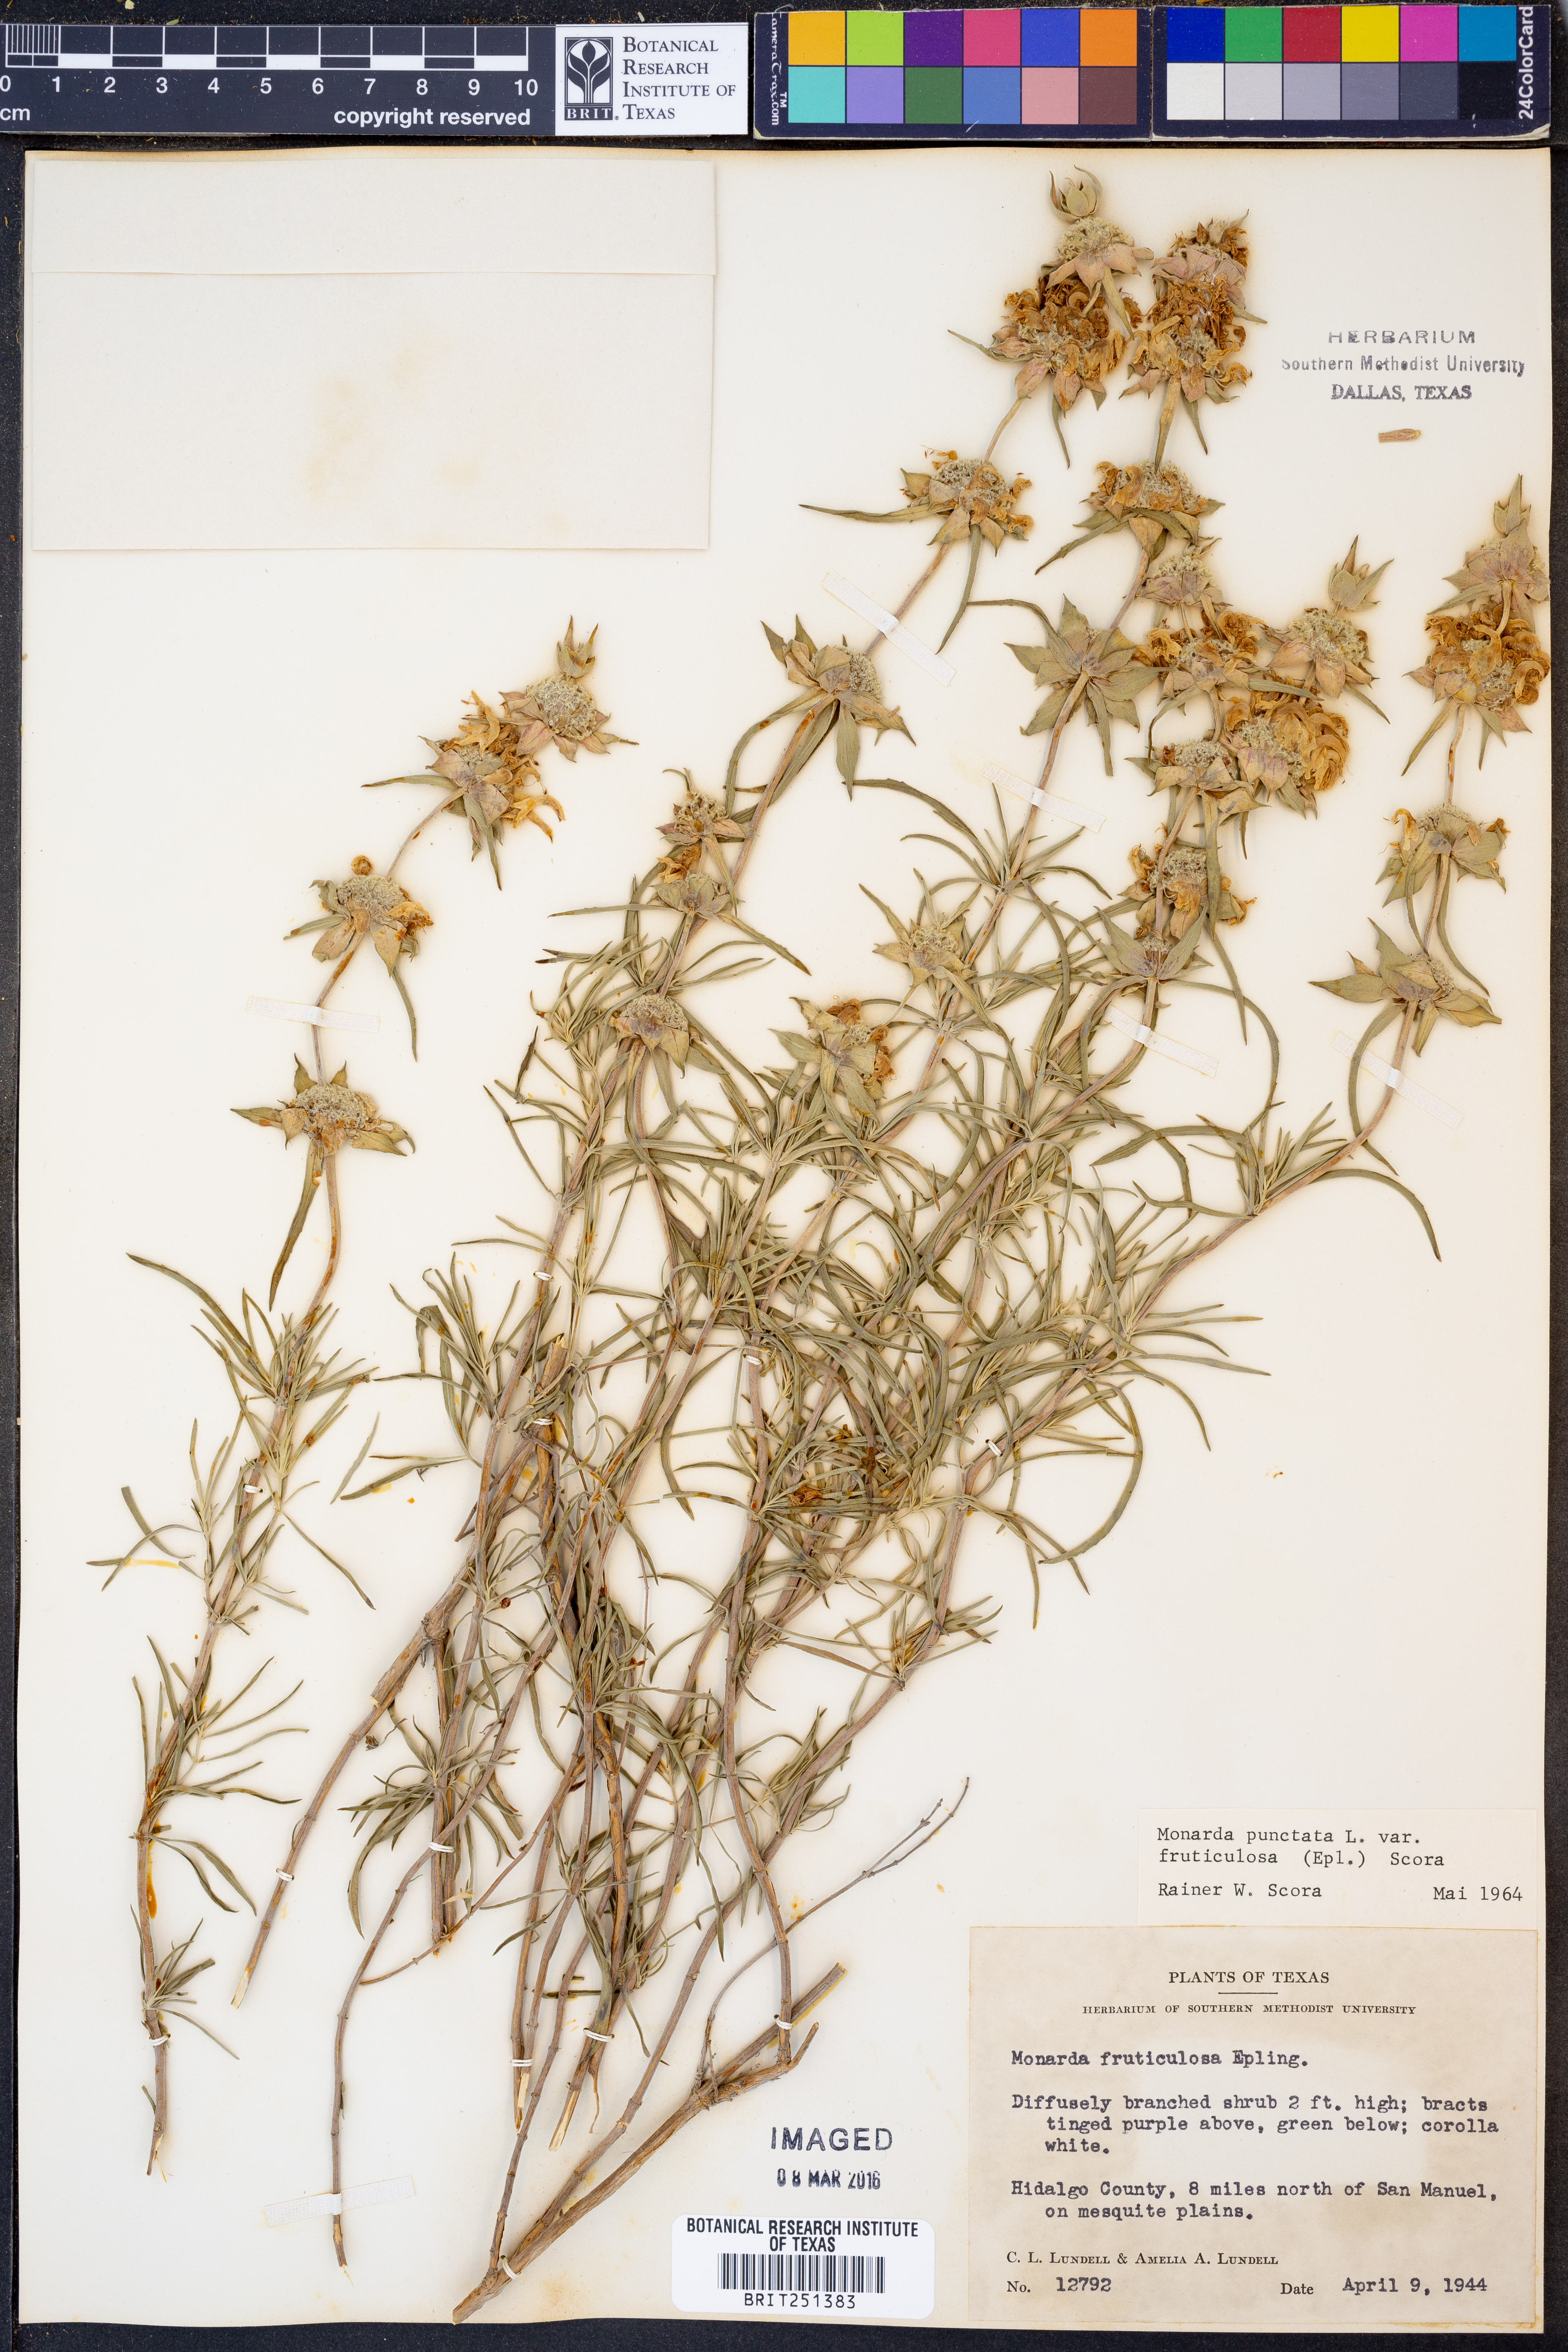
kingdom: Plantae
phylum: Tracheophyta
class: Magnoliopsida
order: Lamiales
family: Lamiaceae
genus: Monarda
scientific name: Monarda fruticulosa
